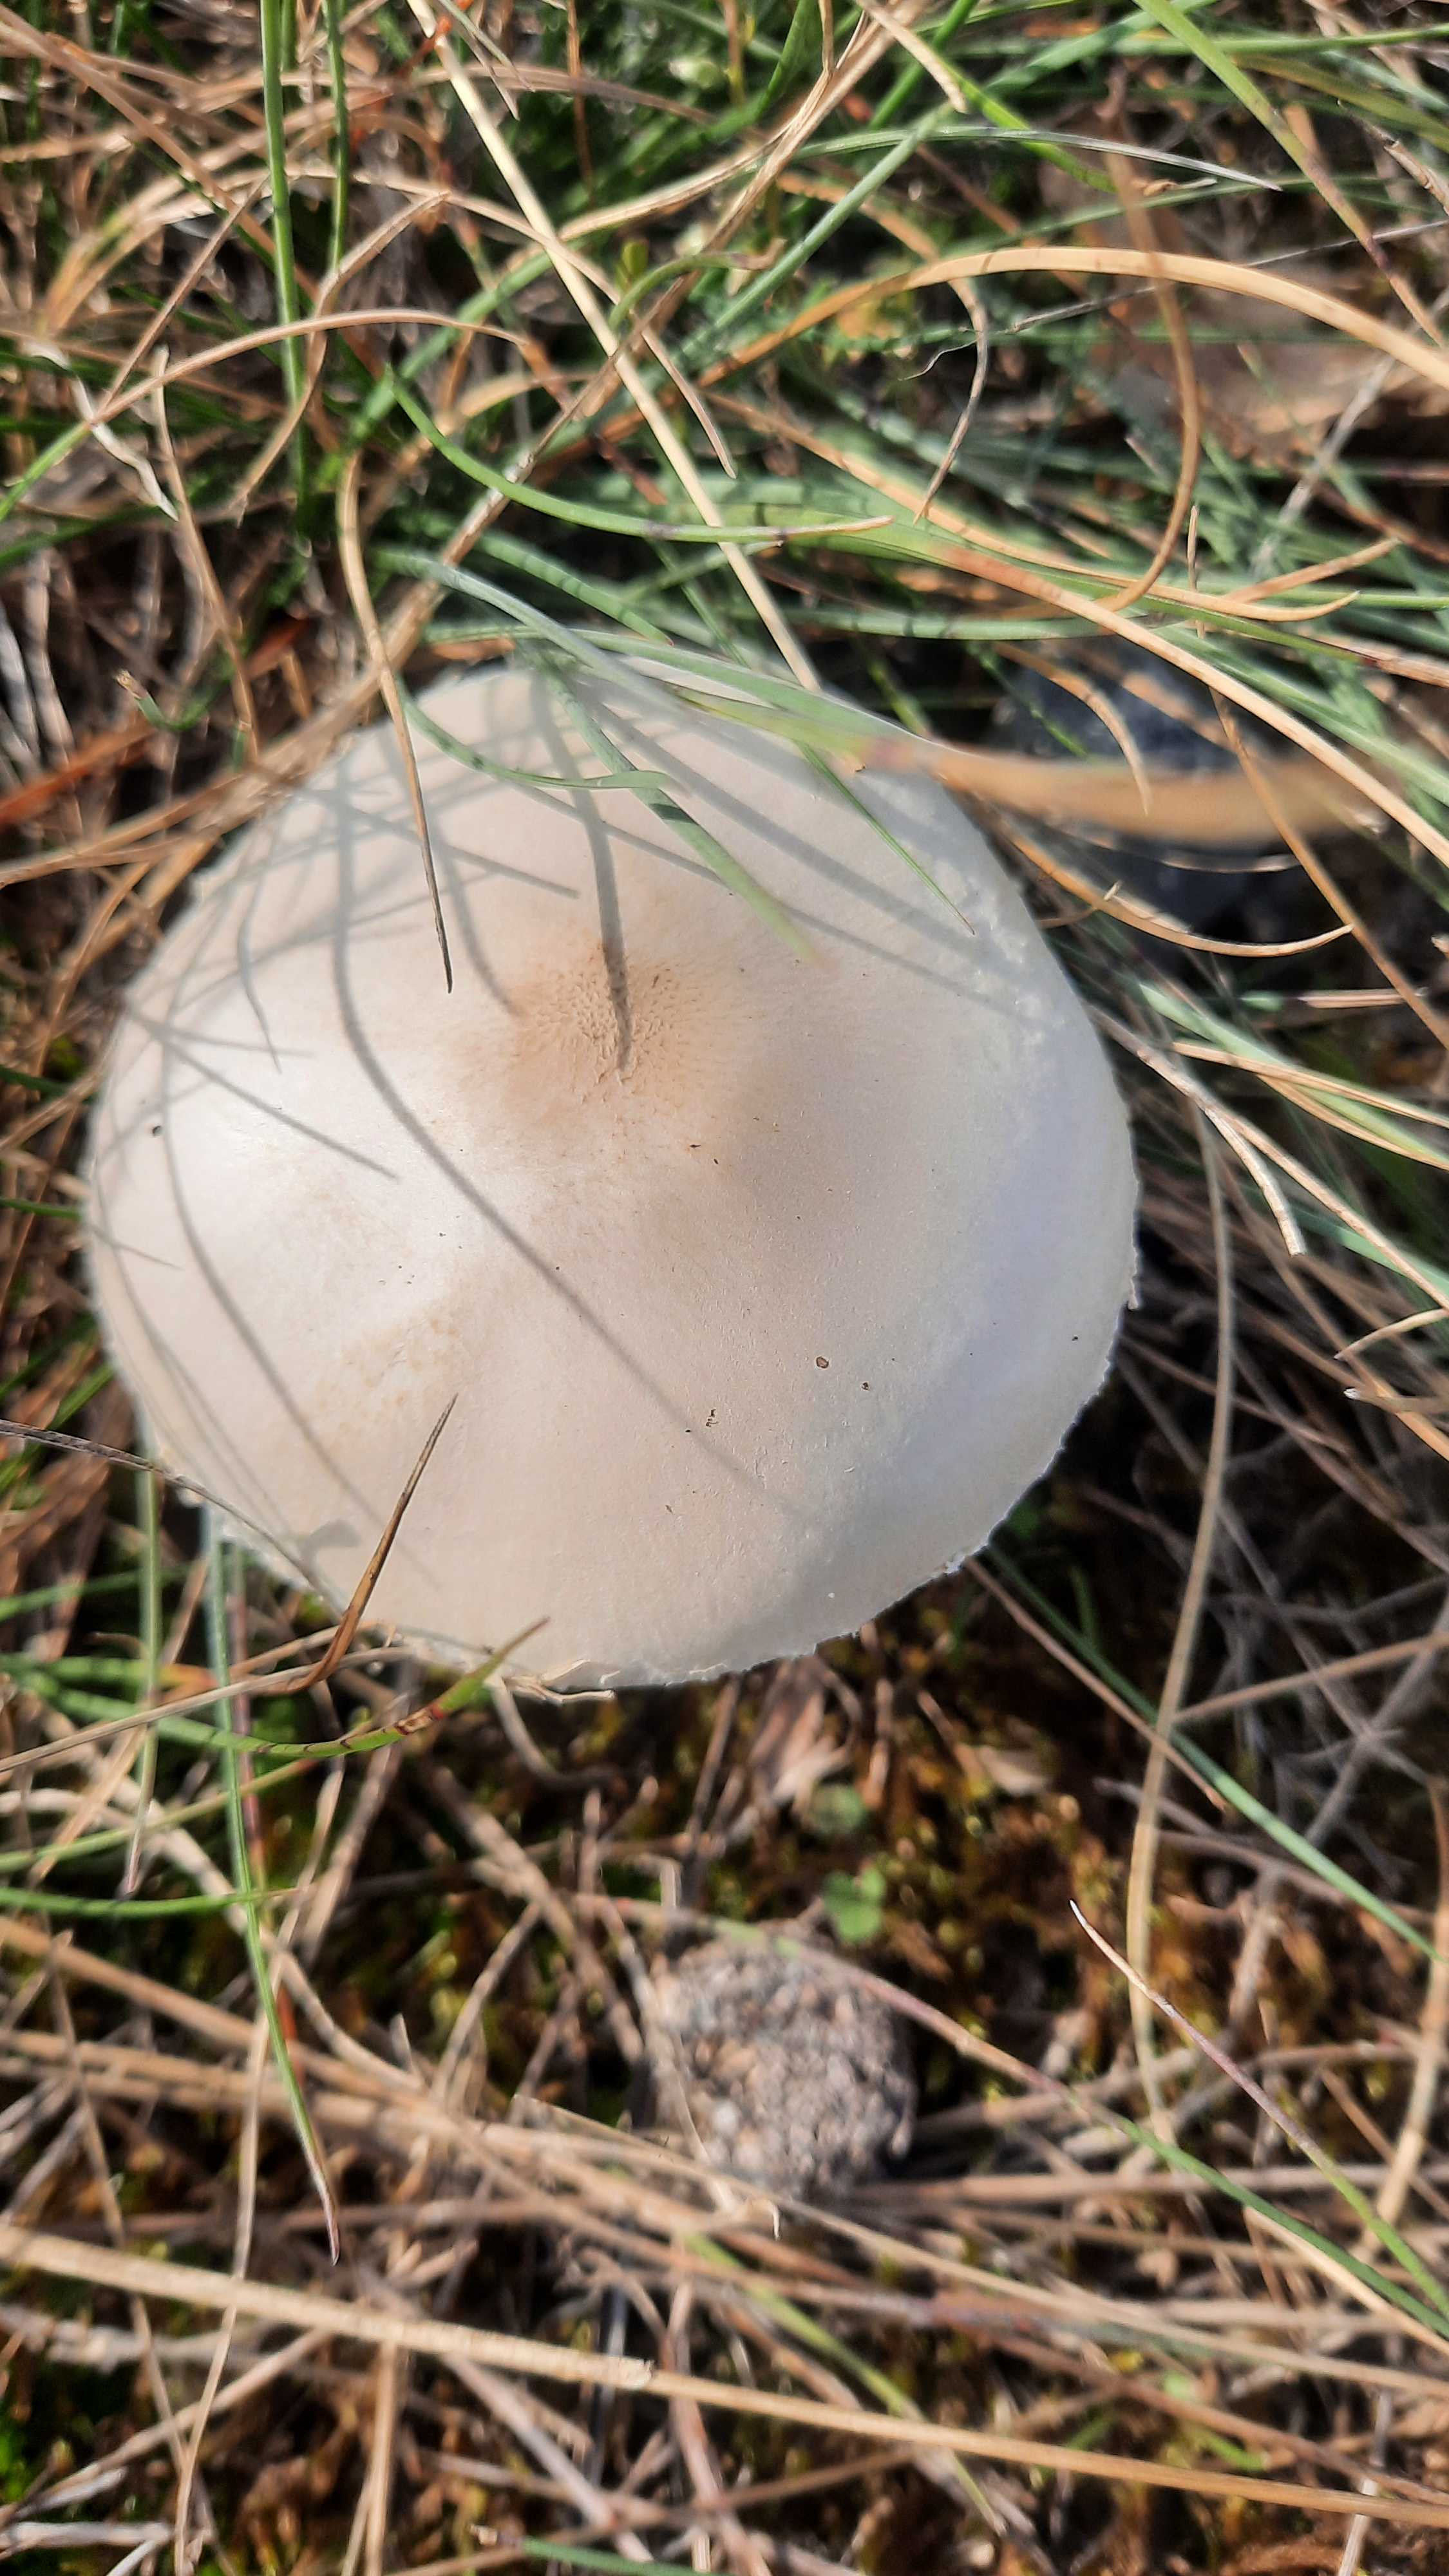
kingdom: Fungi
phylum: Basidiomycota
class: Agaricomycetes
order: Agaricales
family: Agaricaceae
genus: Lepiota
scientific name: Lepiota erminea
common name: hvid parasolhat
